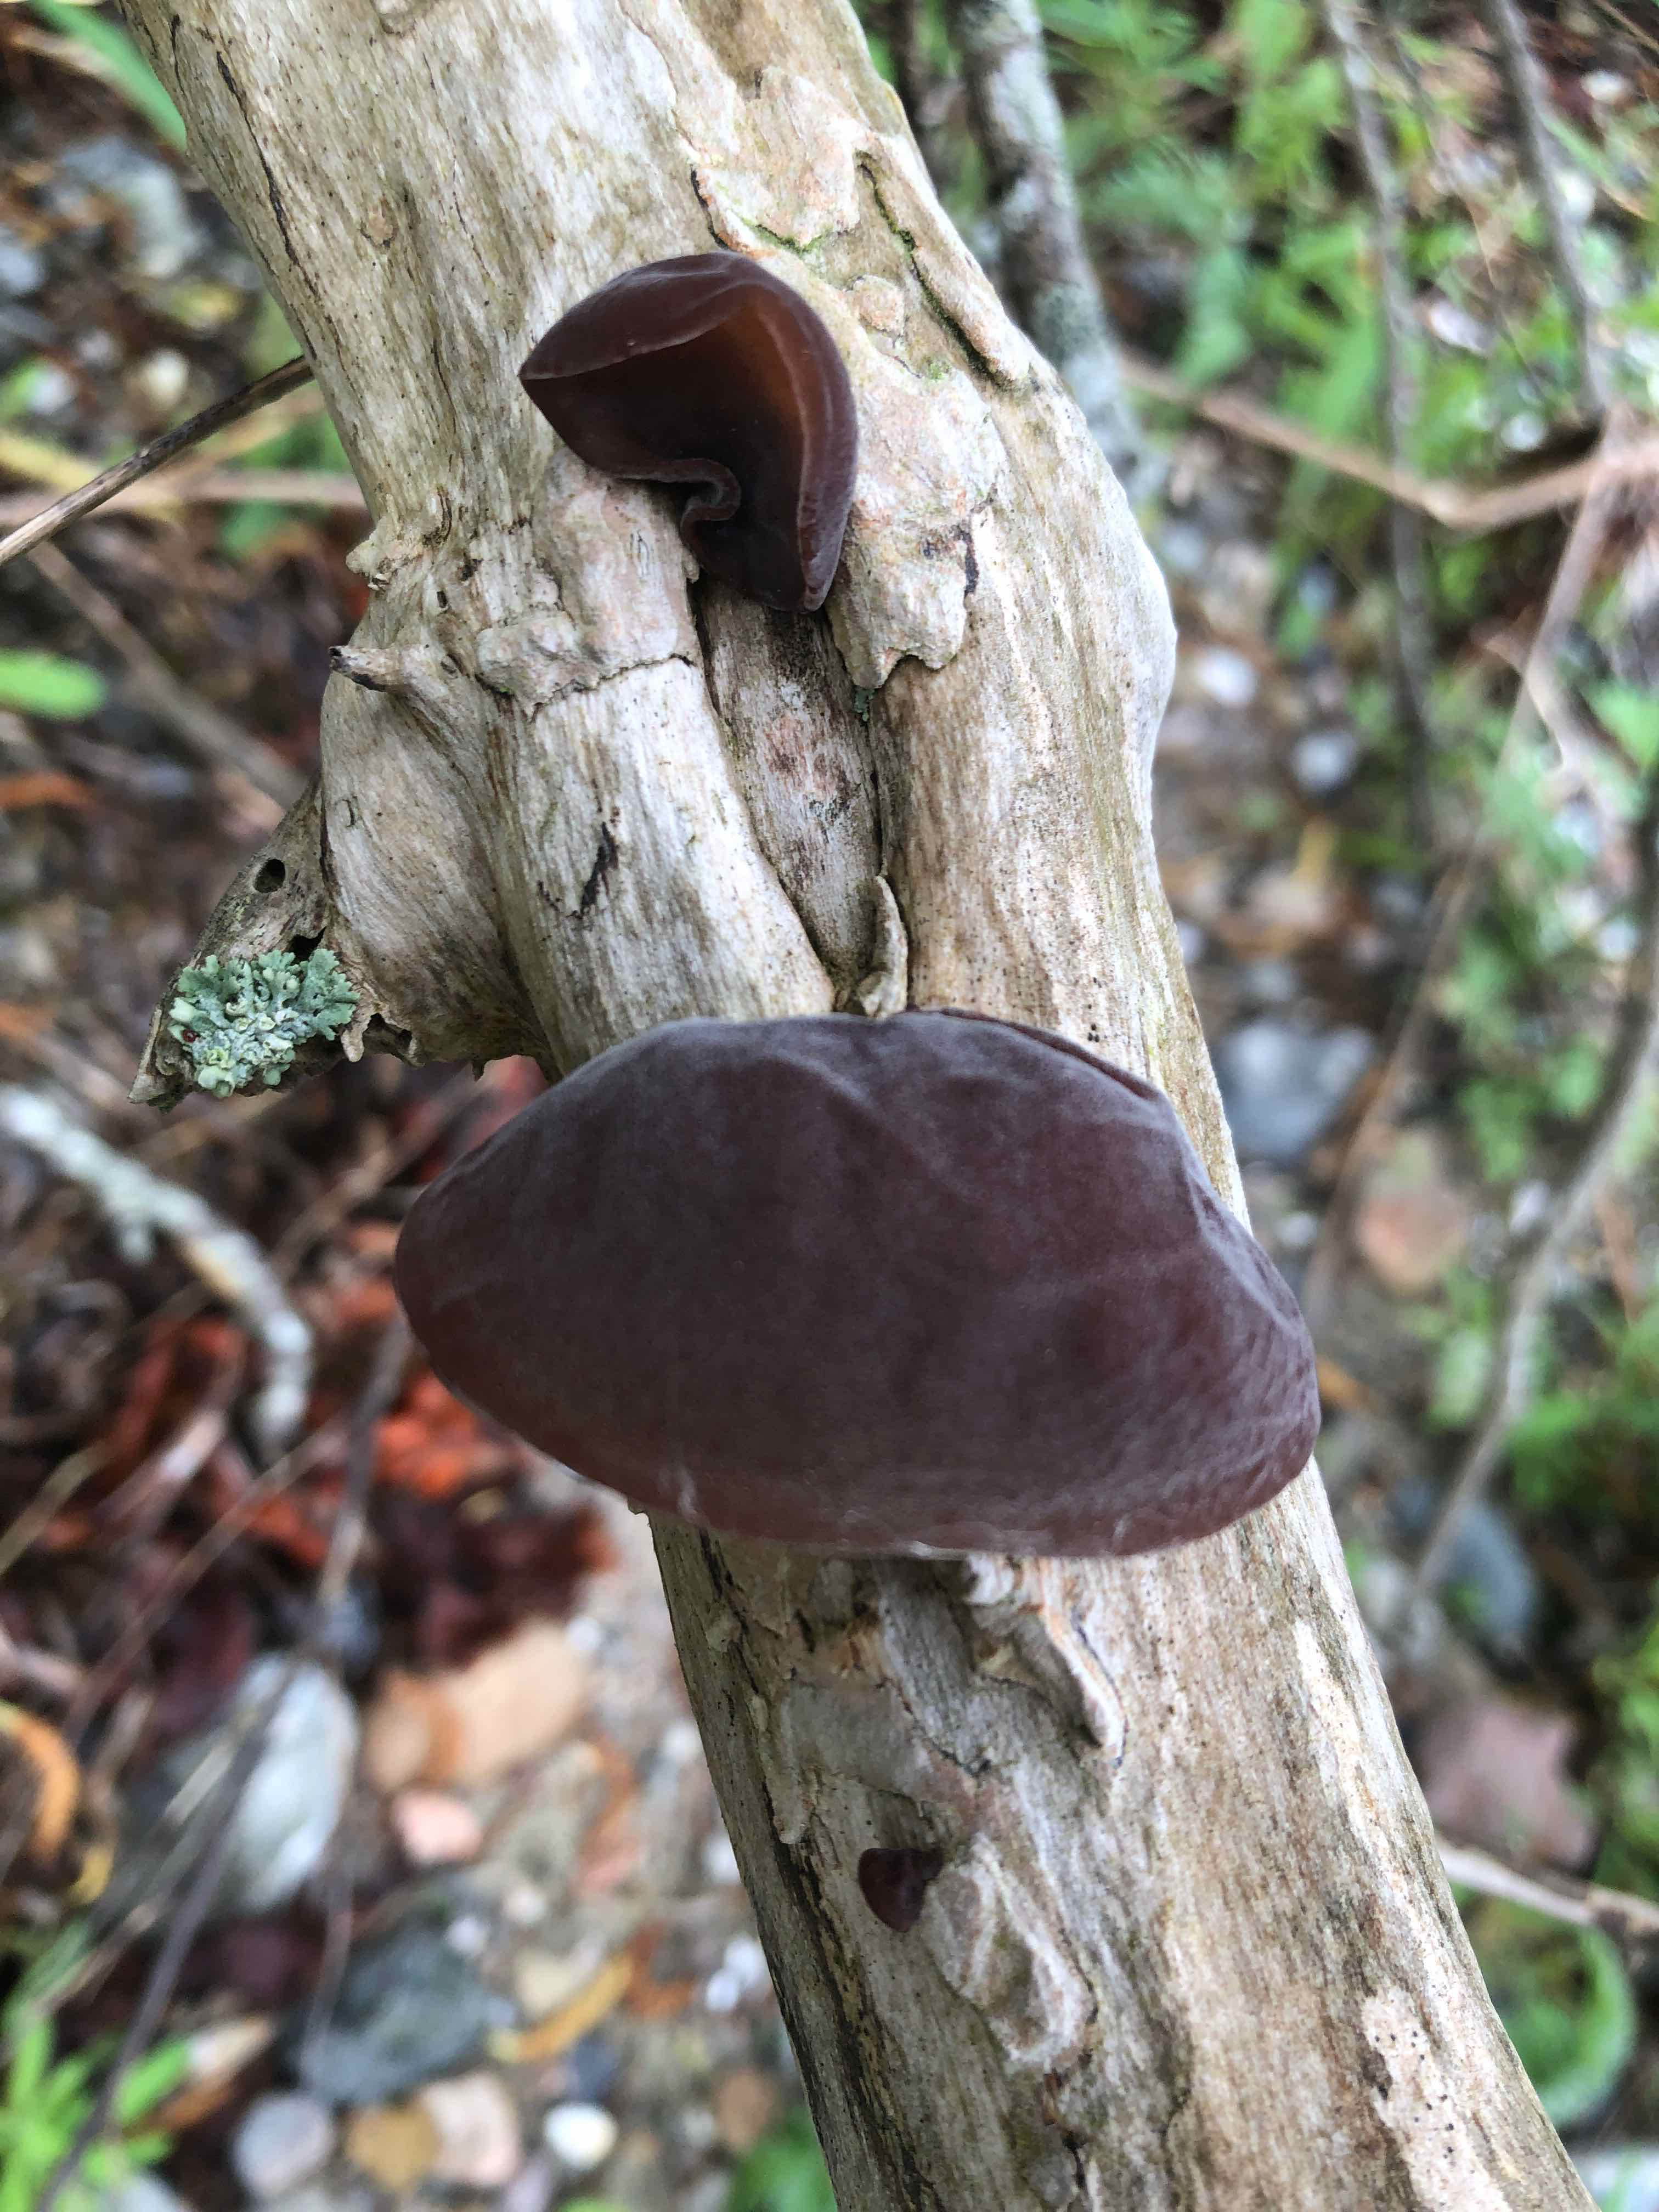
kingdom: Fungi
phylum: Basidiomycota
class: Agaricomycetes
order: Auriculariales
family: Auriculariaceae
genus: Auricularia
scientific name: Auricularia auricula-judae
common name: almindelig judasøre
